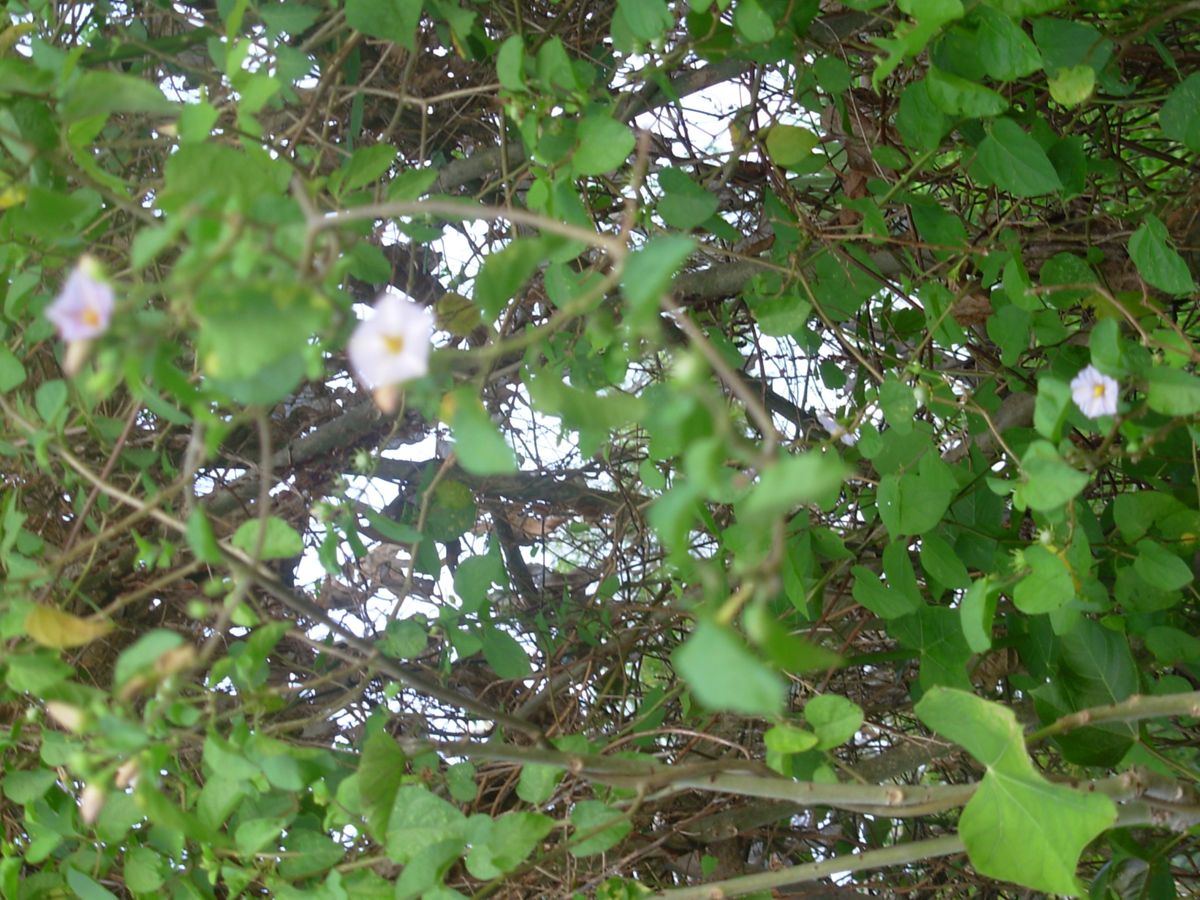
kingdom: Plantae
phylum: Tracheophyta
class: Magnoliopsida
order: Solanales
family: Solanaceae
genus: Lycianthes
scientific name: Lycianthes scandens
